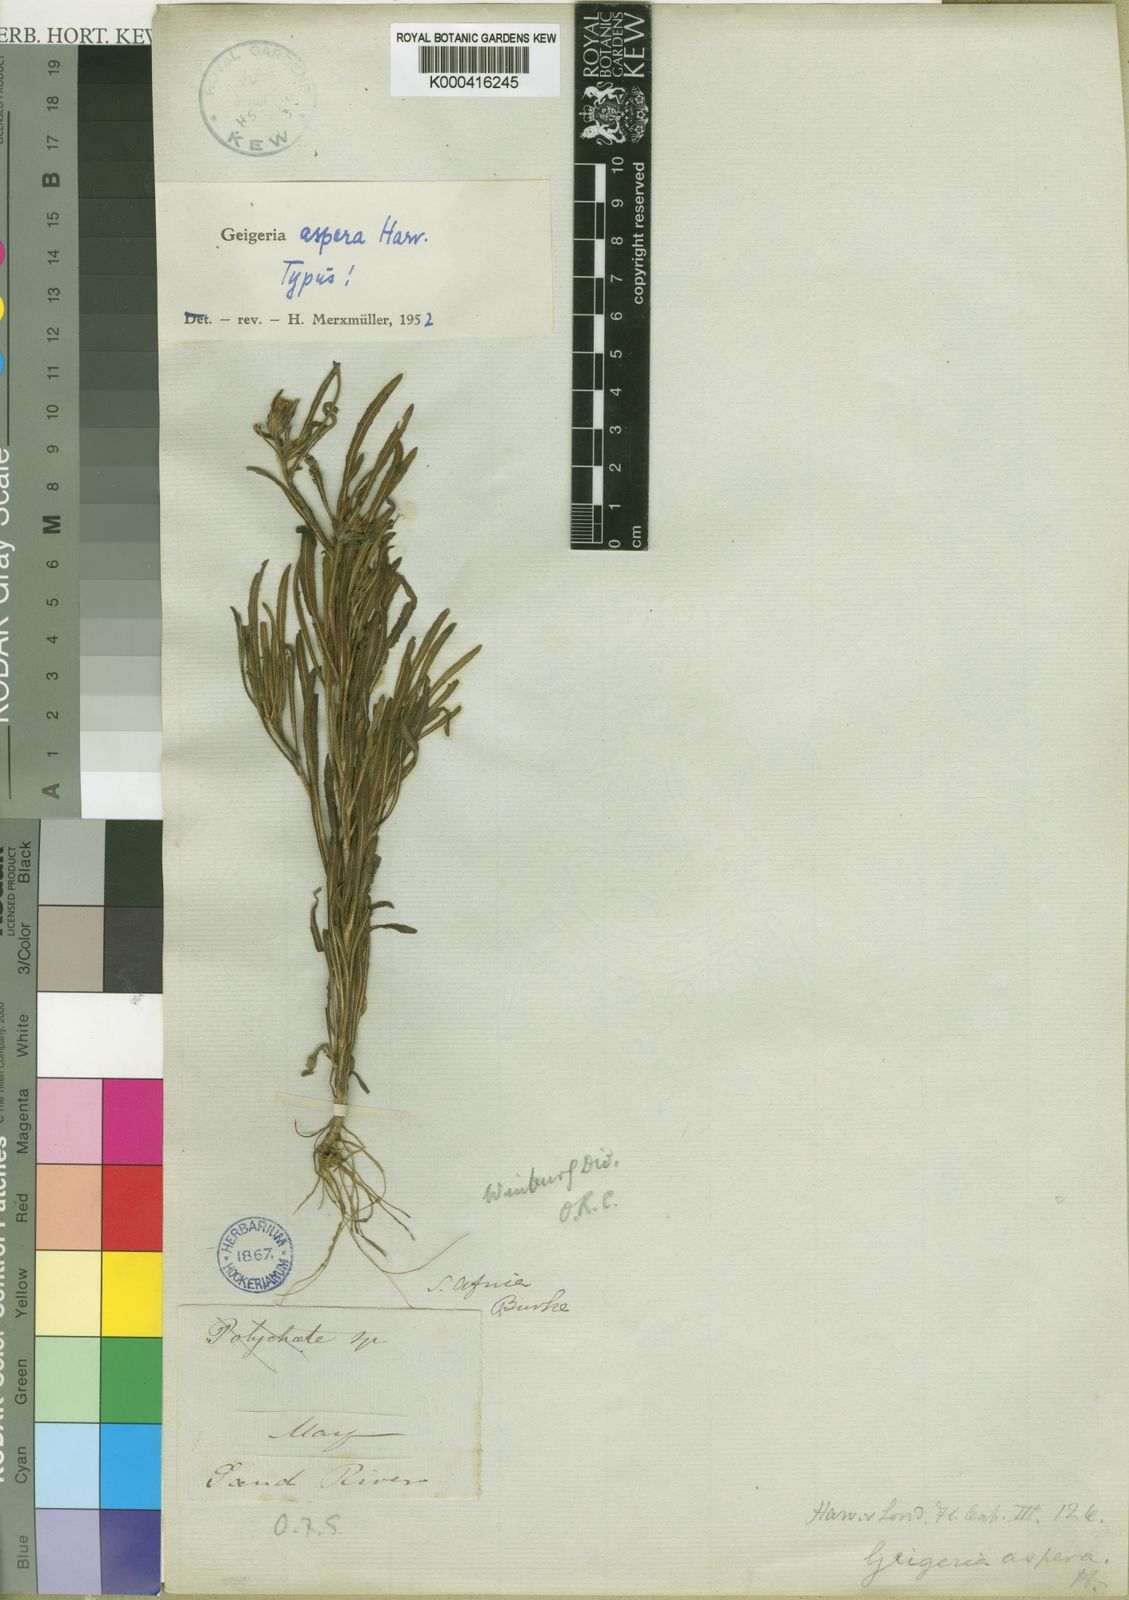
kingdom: Plantae
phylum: Tracheophyta
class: Magnoliopsida
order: Asterales
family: Asteraceae
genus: Geigeria
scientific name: Geigeria aspera
